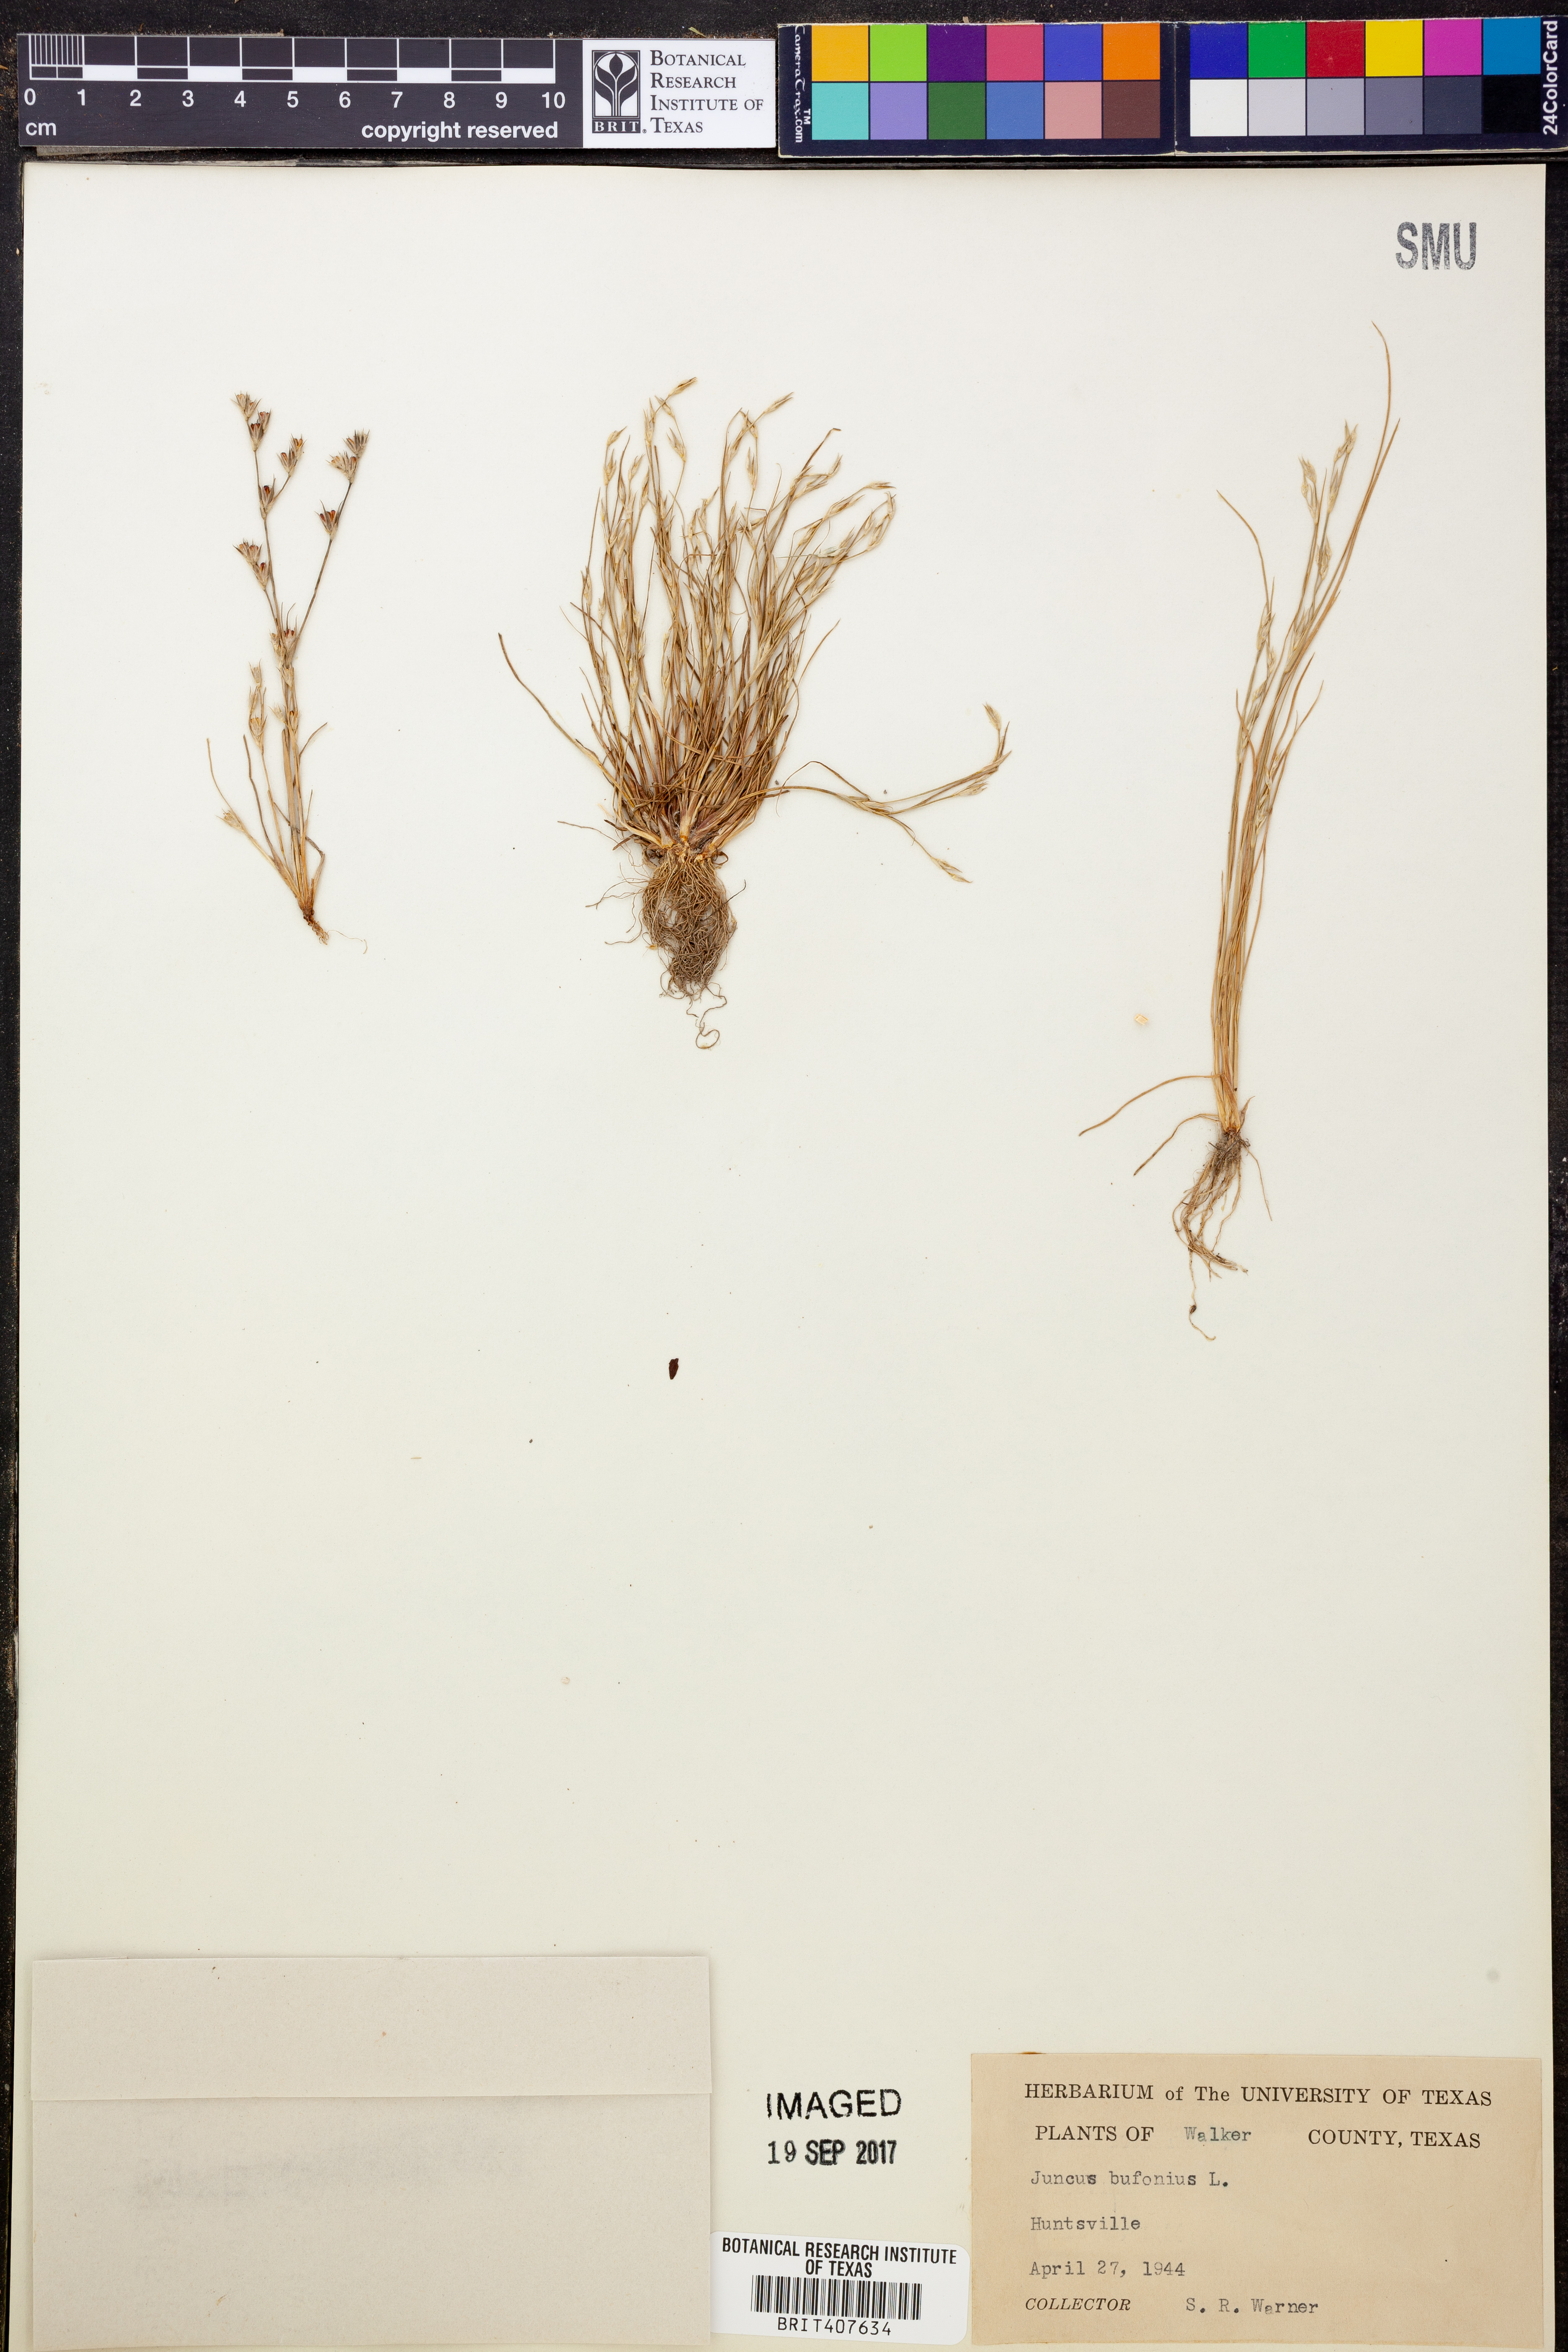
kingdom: Plantae
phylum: Tracheophyta
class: Liliopsida
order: Poales
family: Juncaceae
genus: Juncus
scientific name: Juncus bufonius
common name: Toad rush
